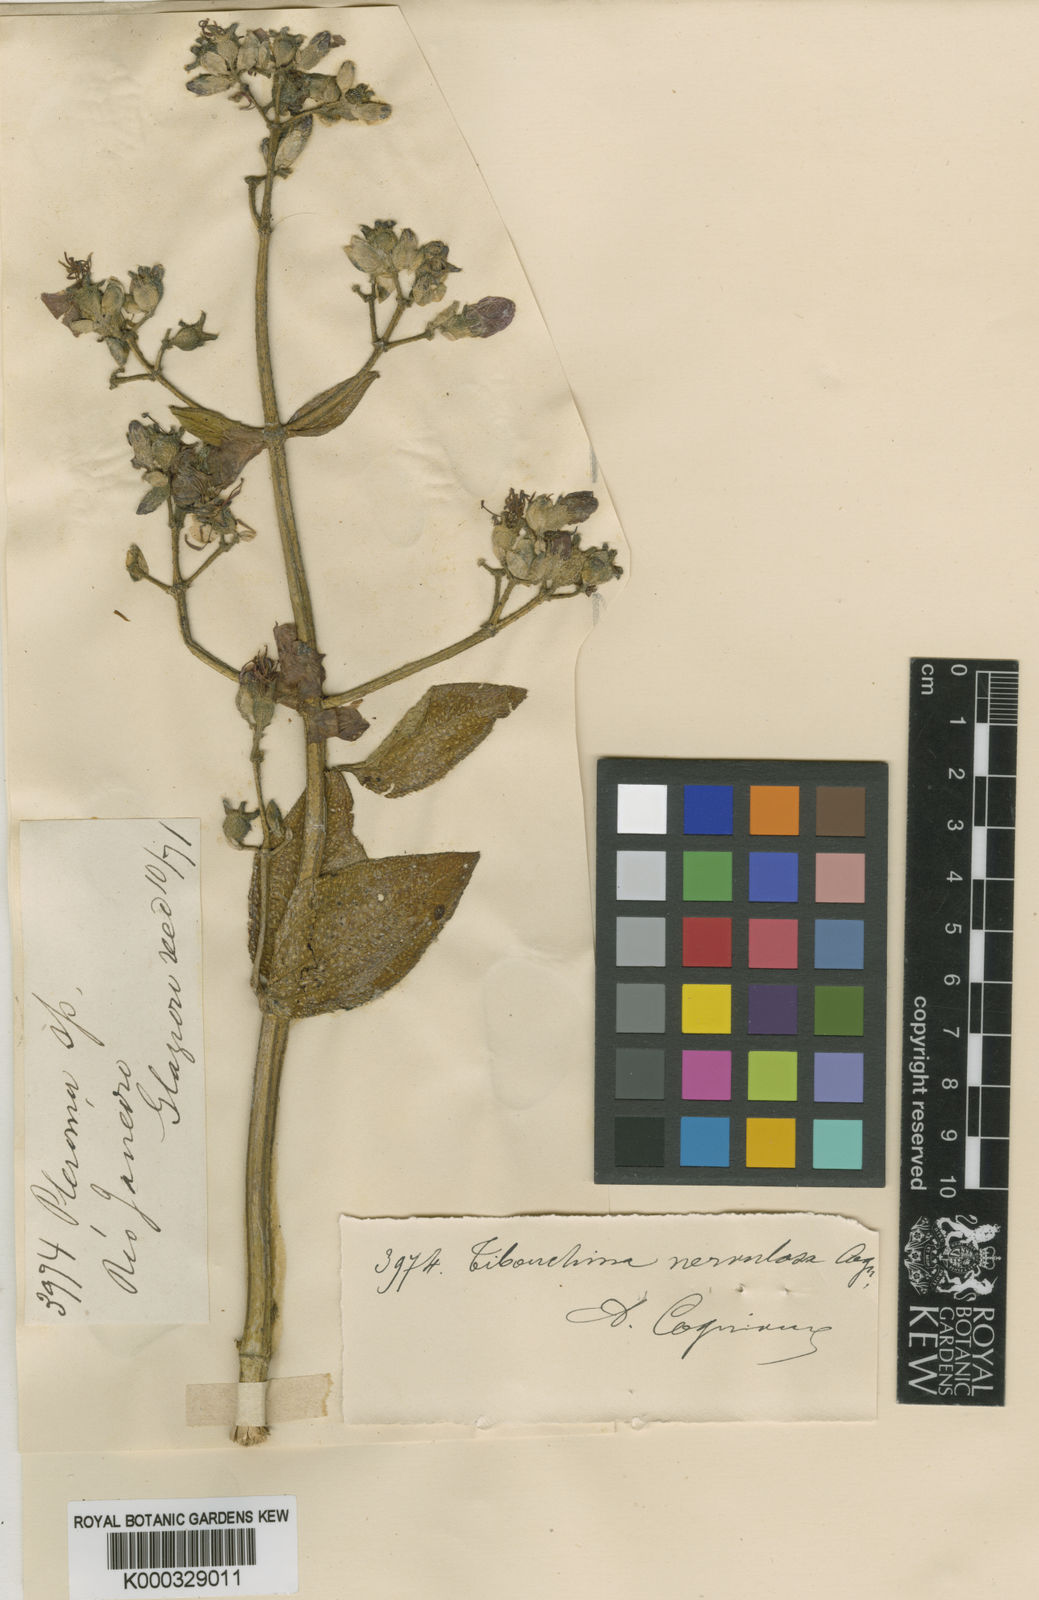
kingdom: Plantae
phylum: Tracheophyta
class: Magnoliopsida
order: Myrtales
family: Melastomataceae
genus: Pleroma
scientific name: Pleroma virgatum
